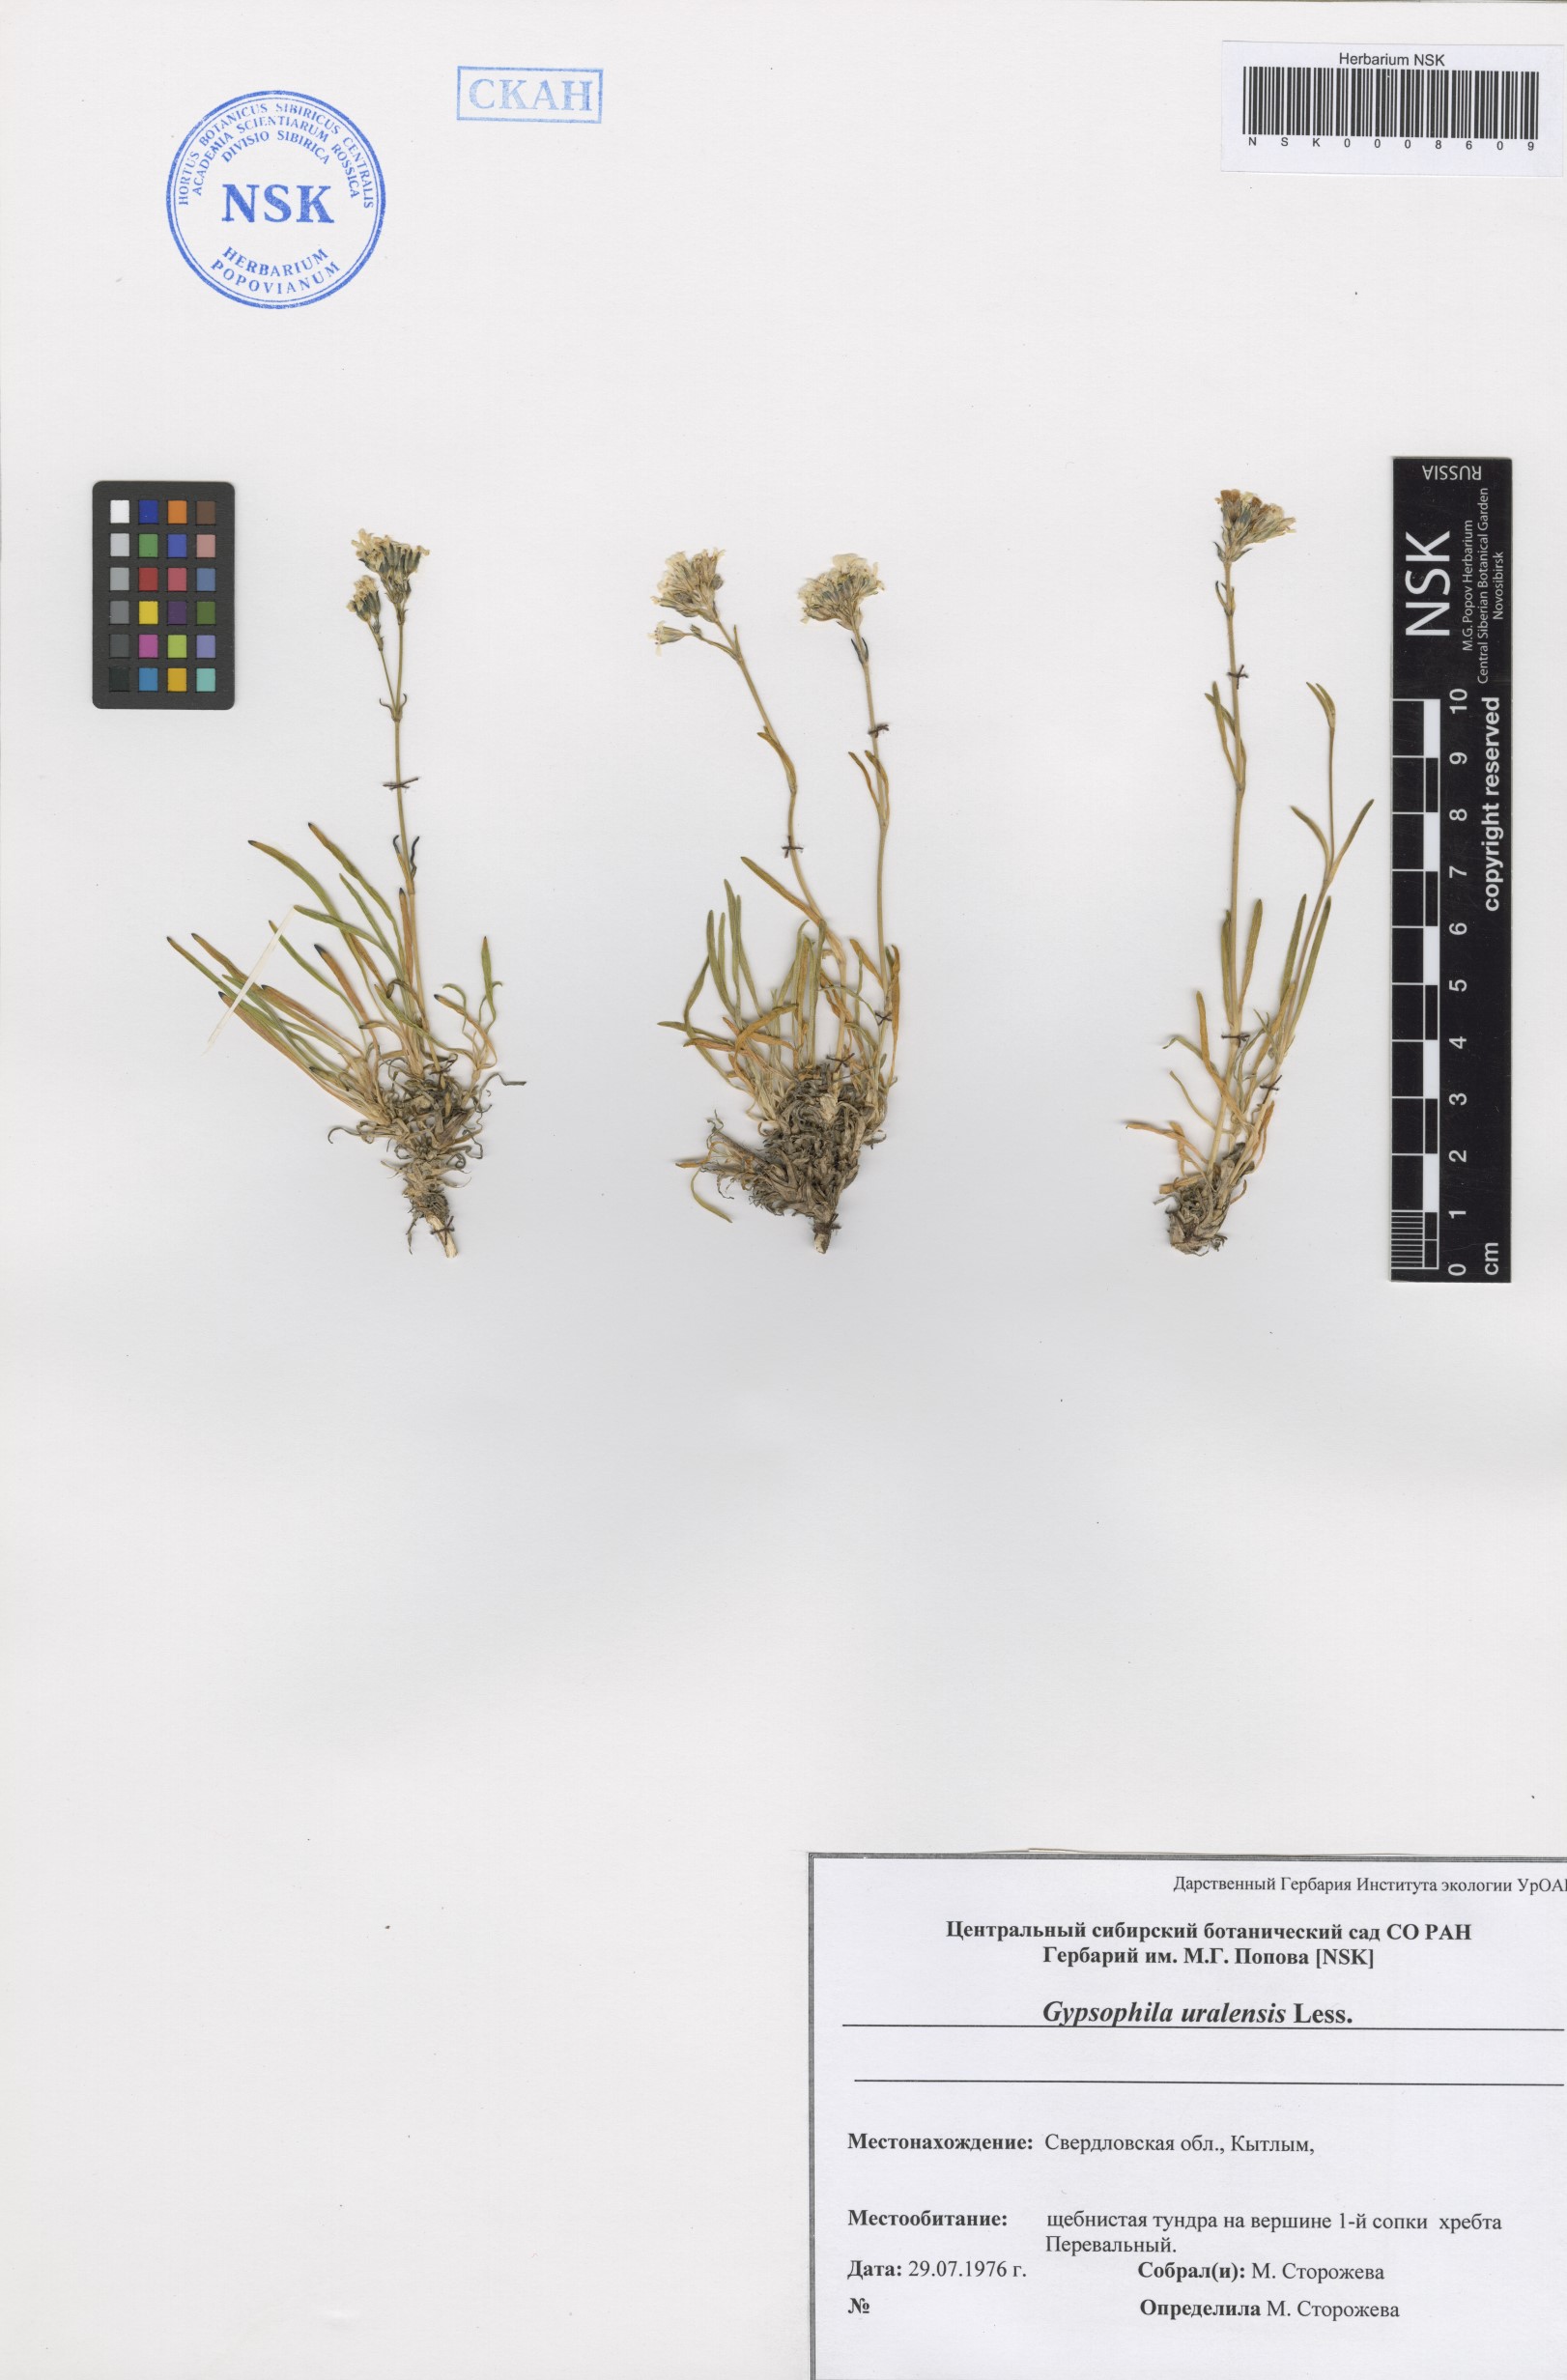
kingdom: Plantae
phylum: Tracheophyta
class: Magnoliopsida
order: Caryophyllales
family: Caryophyllaceae
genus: Gypsophila
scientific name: Gypsophila uralensis
